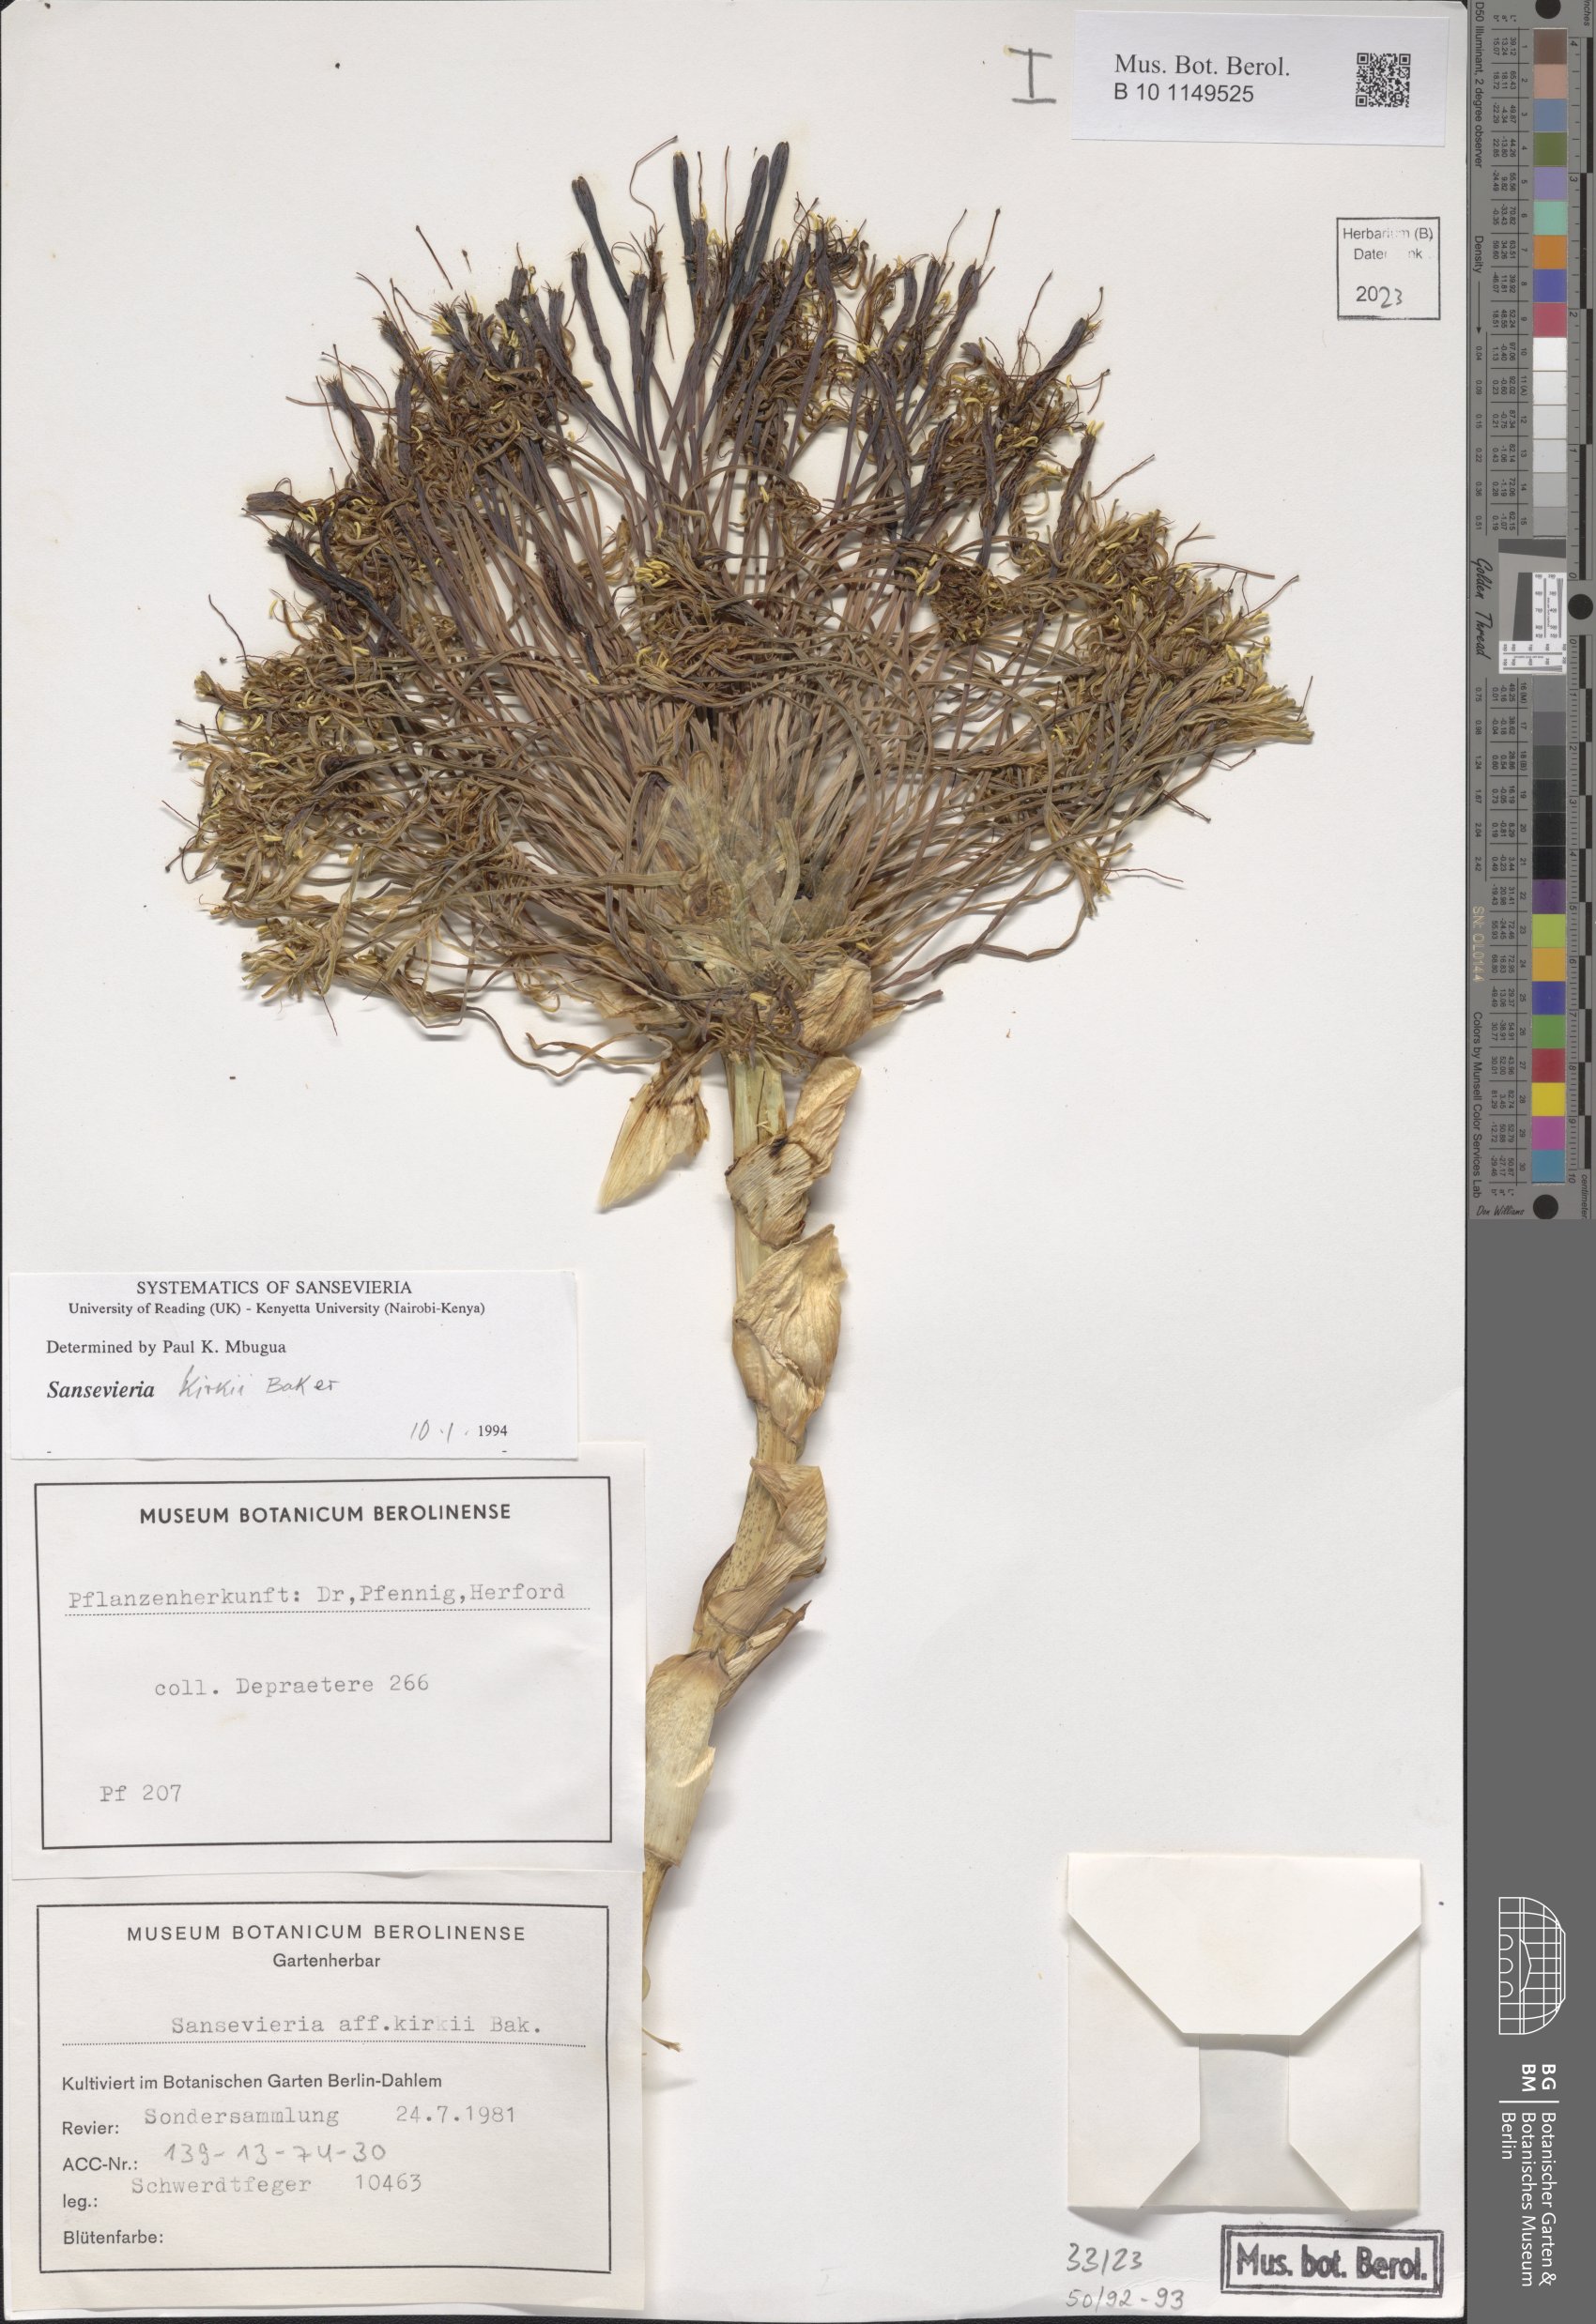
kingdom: Plantae
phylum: Tracheophyta
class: Liliopsida
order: Asparagales
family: Asparagaceae
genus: Dracaena
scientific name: Dracaena pethera
